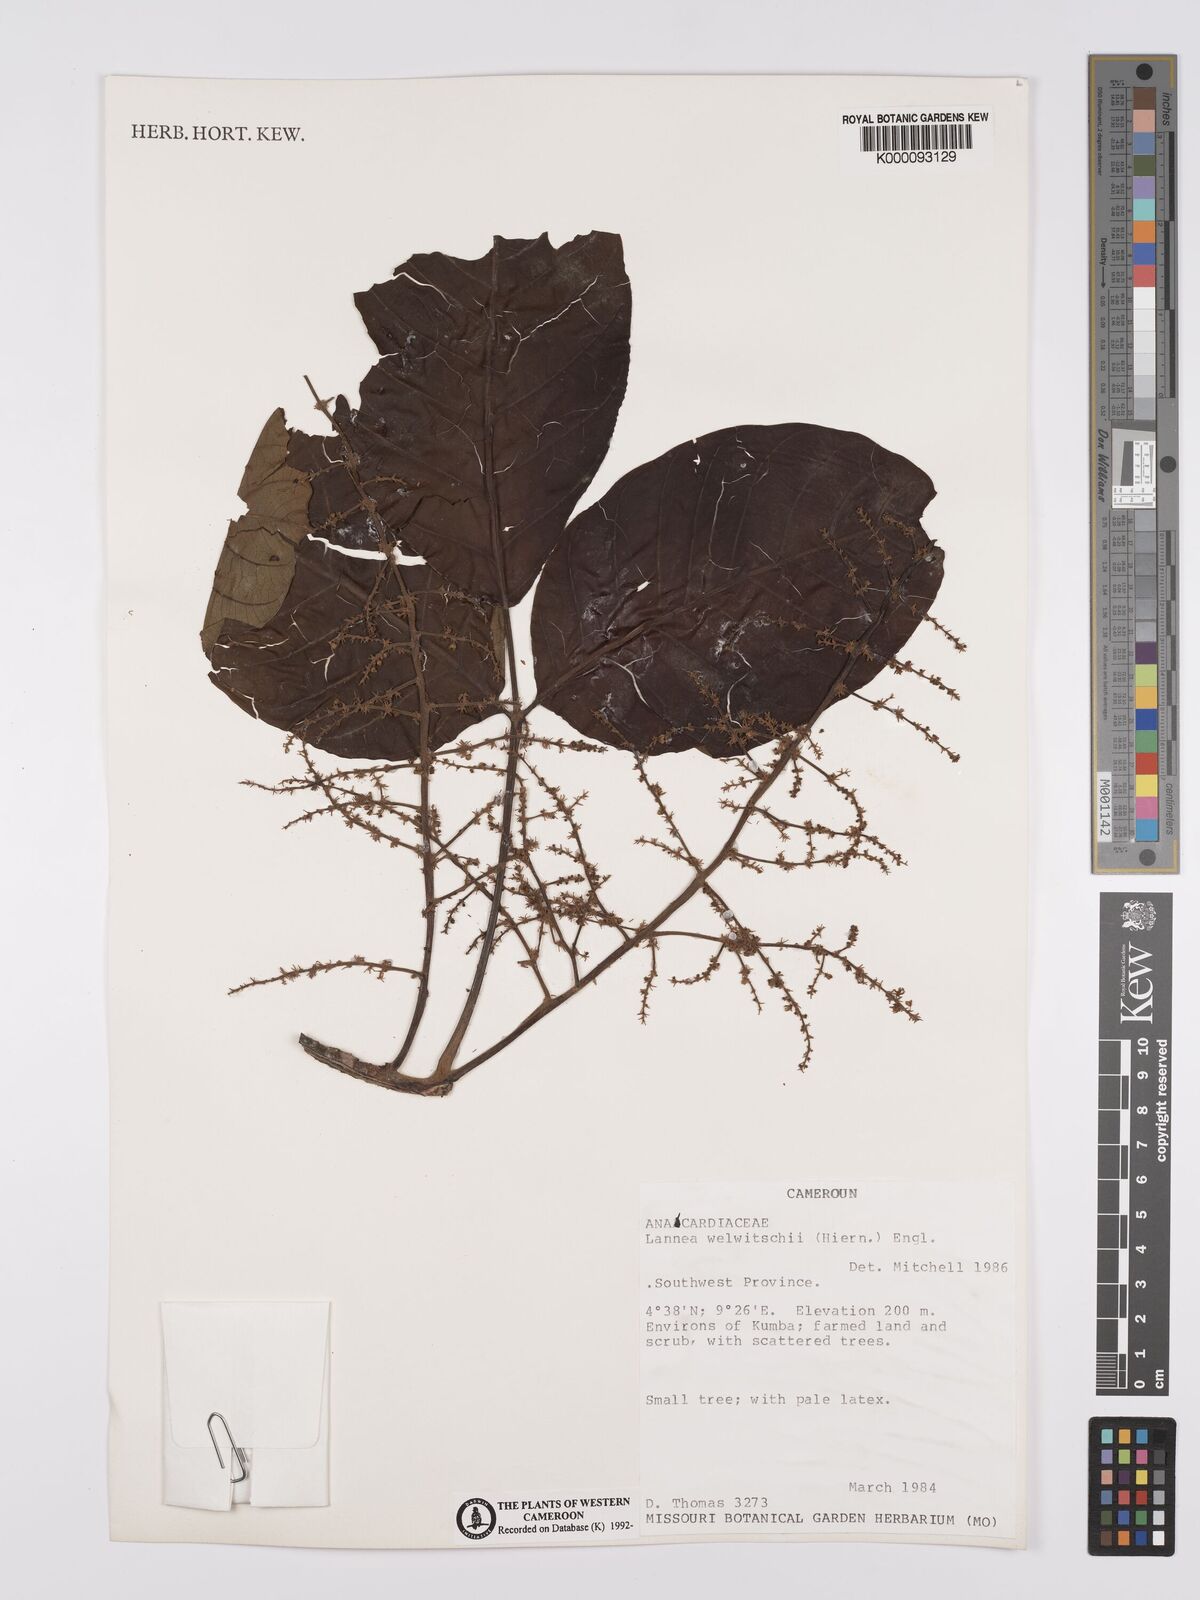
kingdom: Plantae
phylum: Tracheophyta
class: Magnoliopsida
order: Sapindales
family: Anacardiaceae
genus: Lannea
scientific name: Lannea welwitschii
